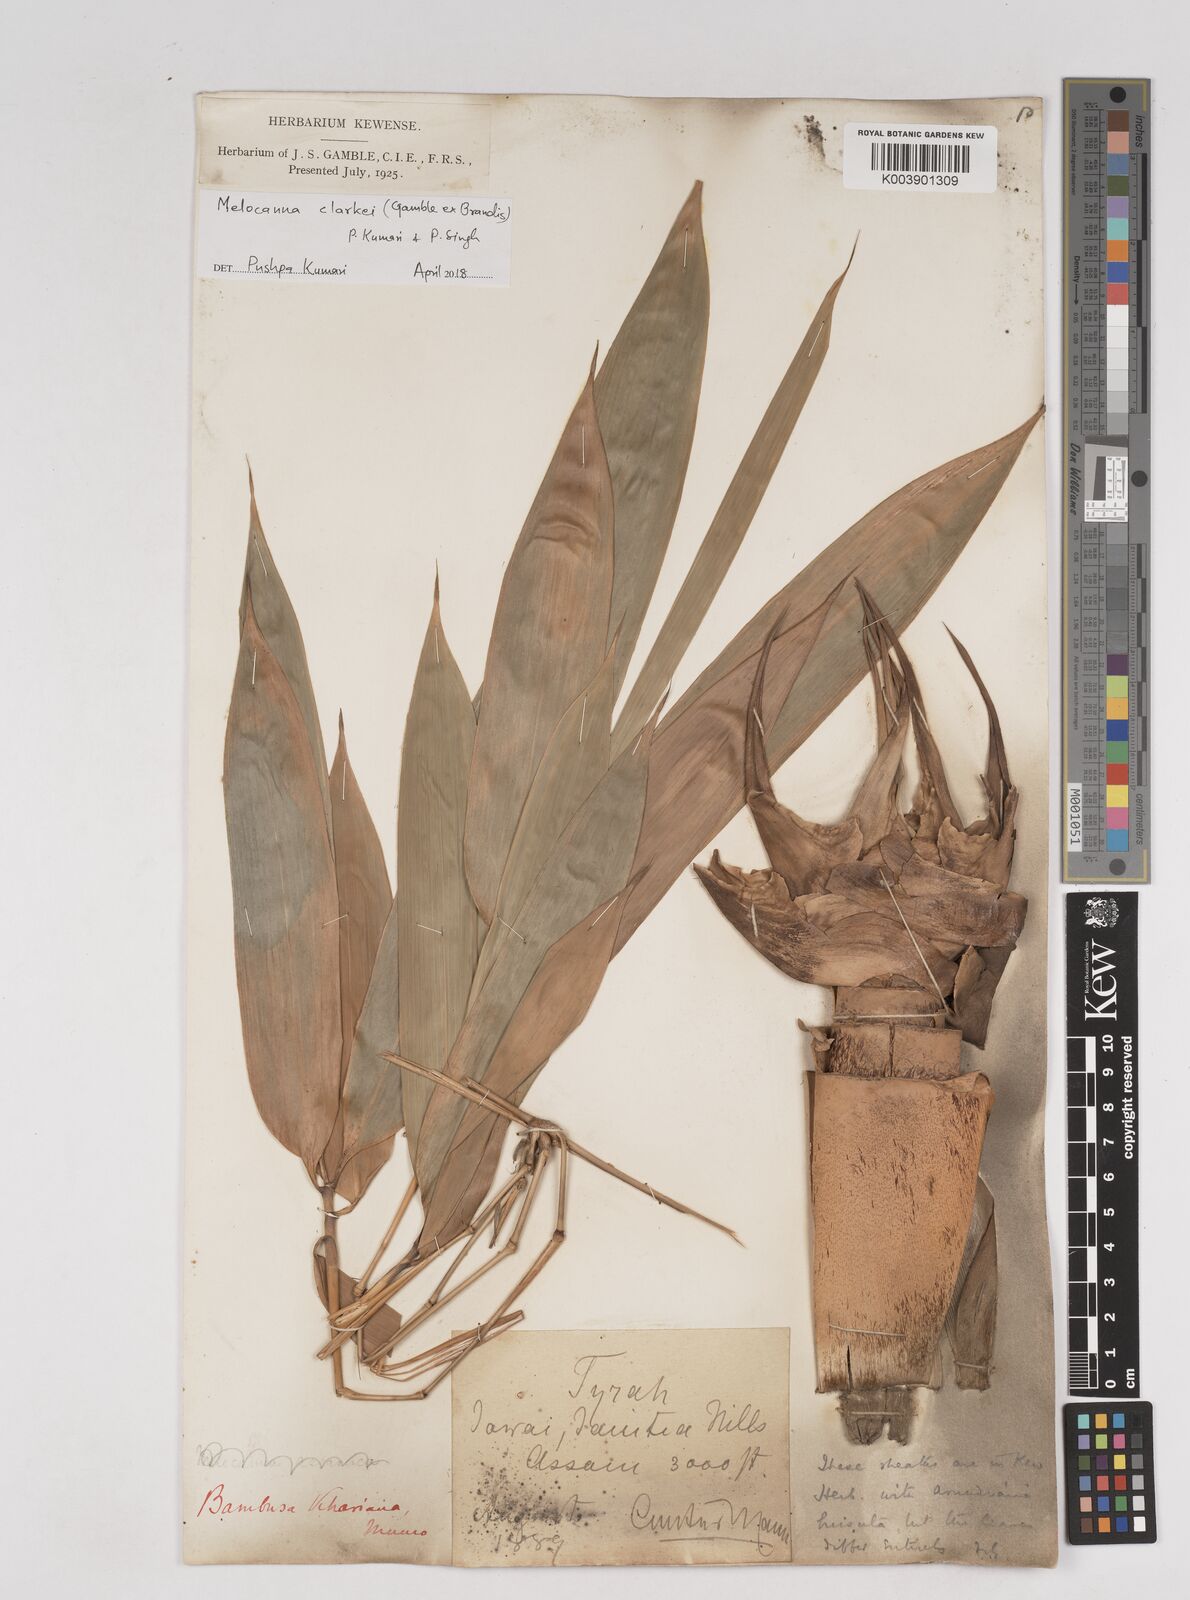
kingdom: Plantae
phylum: Tracheophyta
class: Liliopsida
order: Poales
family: Poaceae
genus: Melocanna
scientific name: Melocanna clarkei
